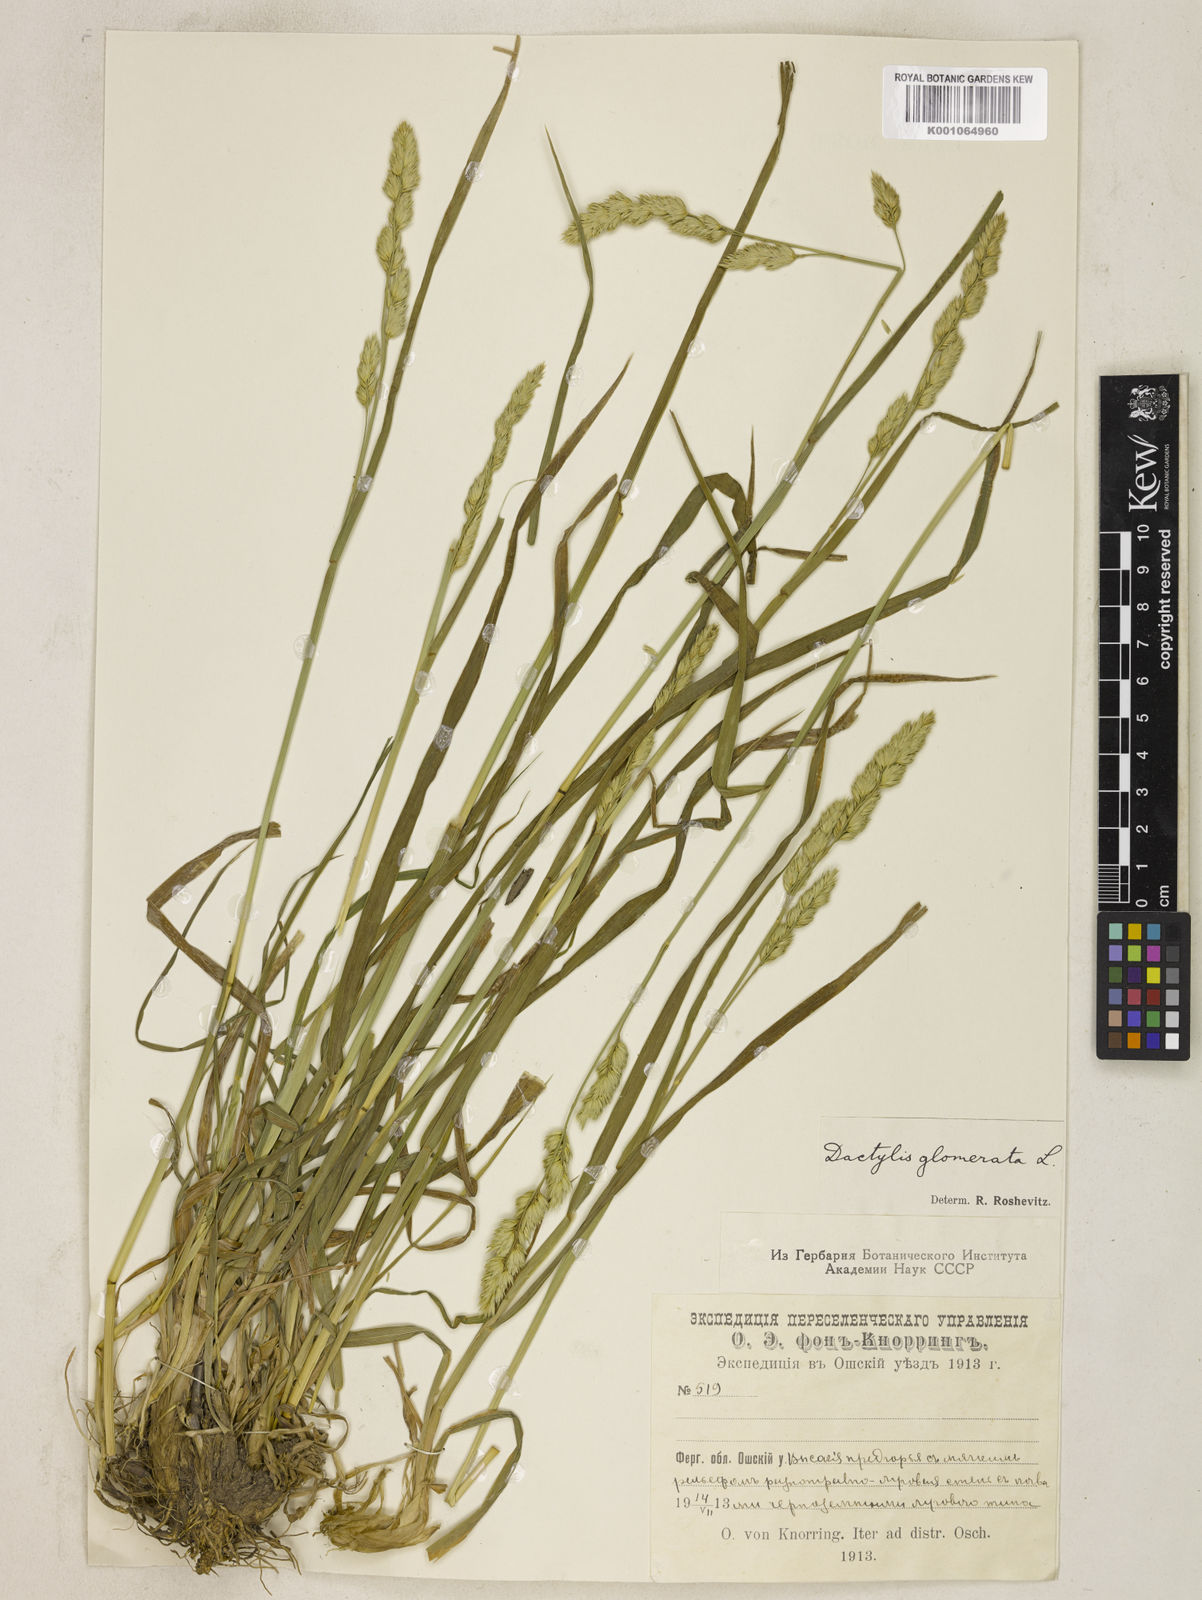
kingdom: Plantae
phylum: Tracheophyta
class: Liliopsida
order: Poales
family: Poaceae
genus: Dactylis
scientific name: Dactylis glomerata
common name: Orchardgrass
